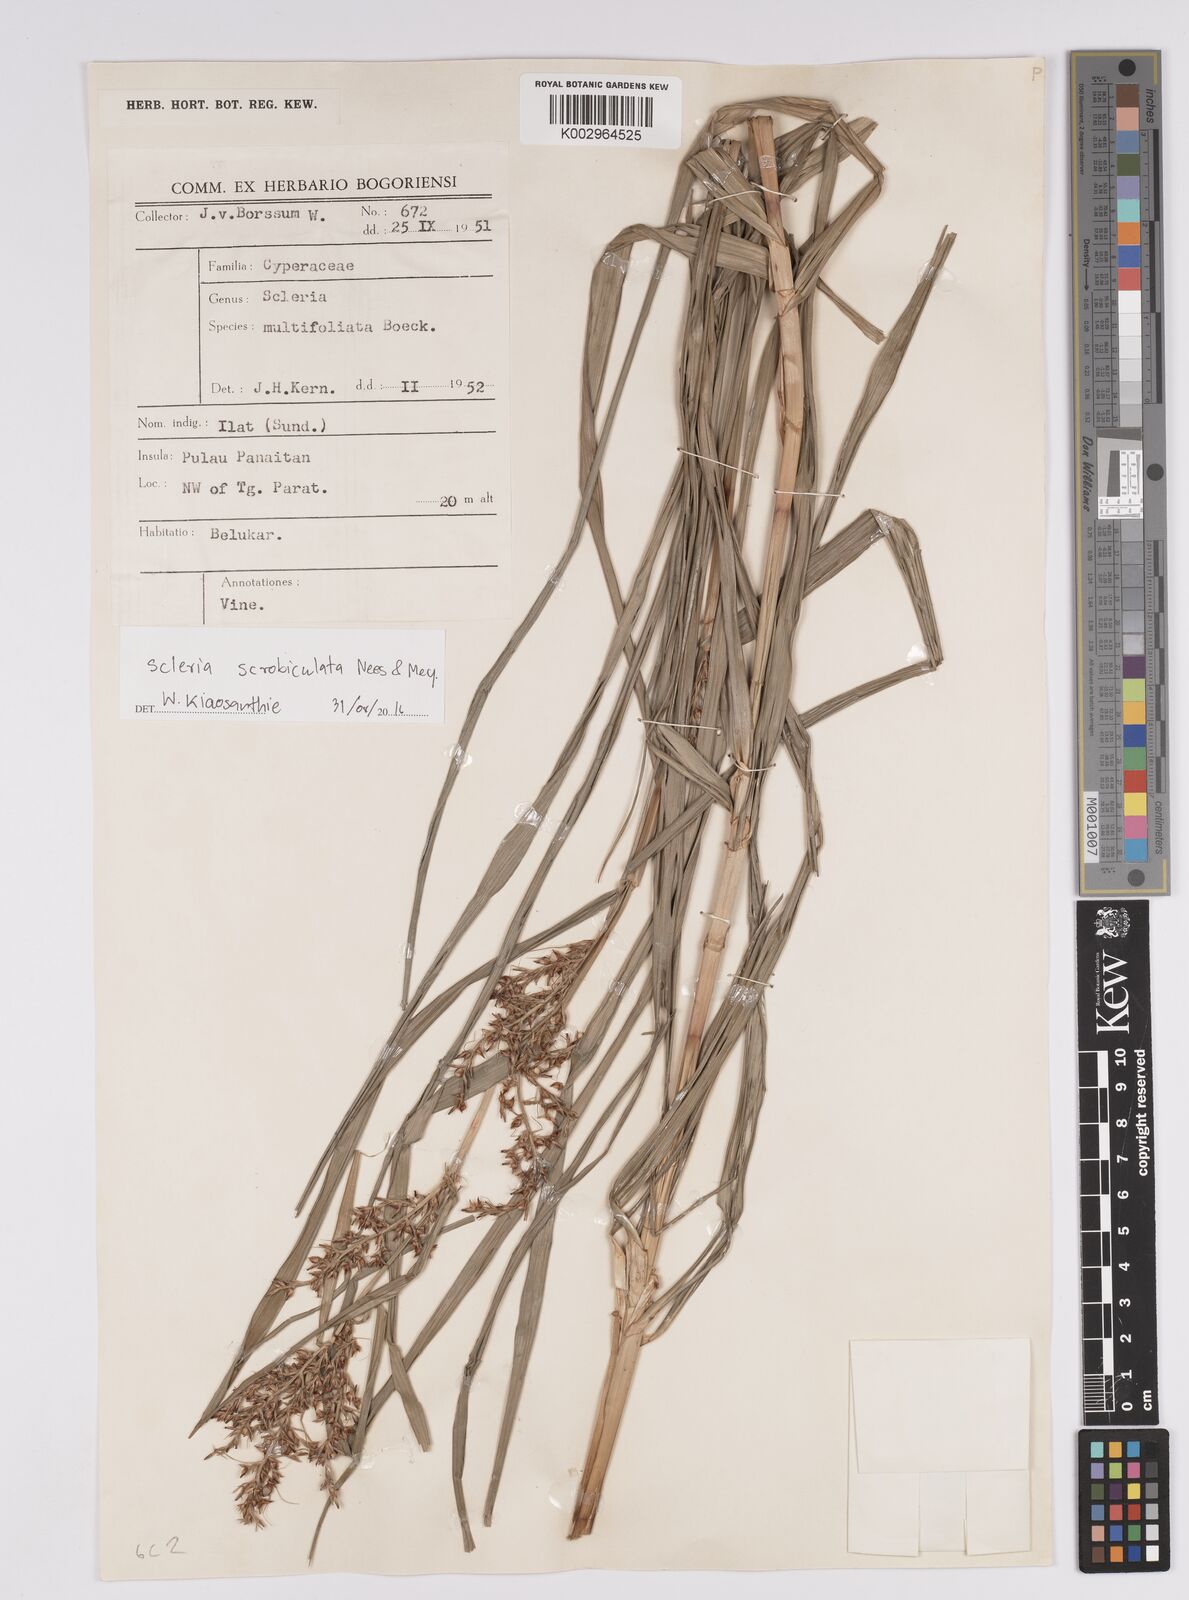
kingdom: Plantae
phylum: Tracheophyta
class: Liliopsida
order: Poales
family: Cyperaceae
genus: Scleria
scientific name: Scleria scrobiculata
